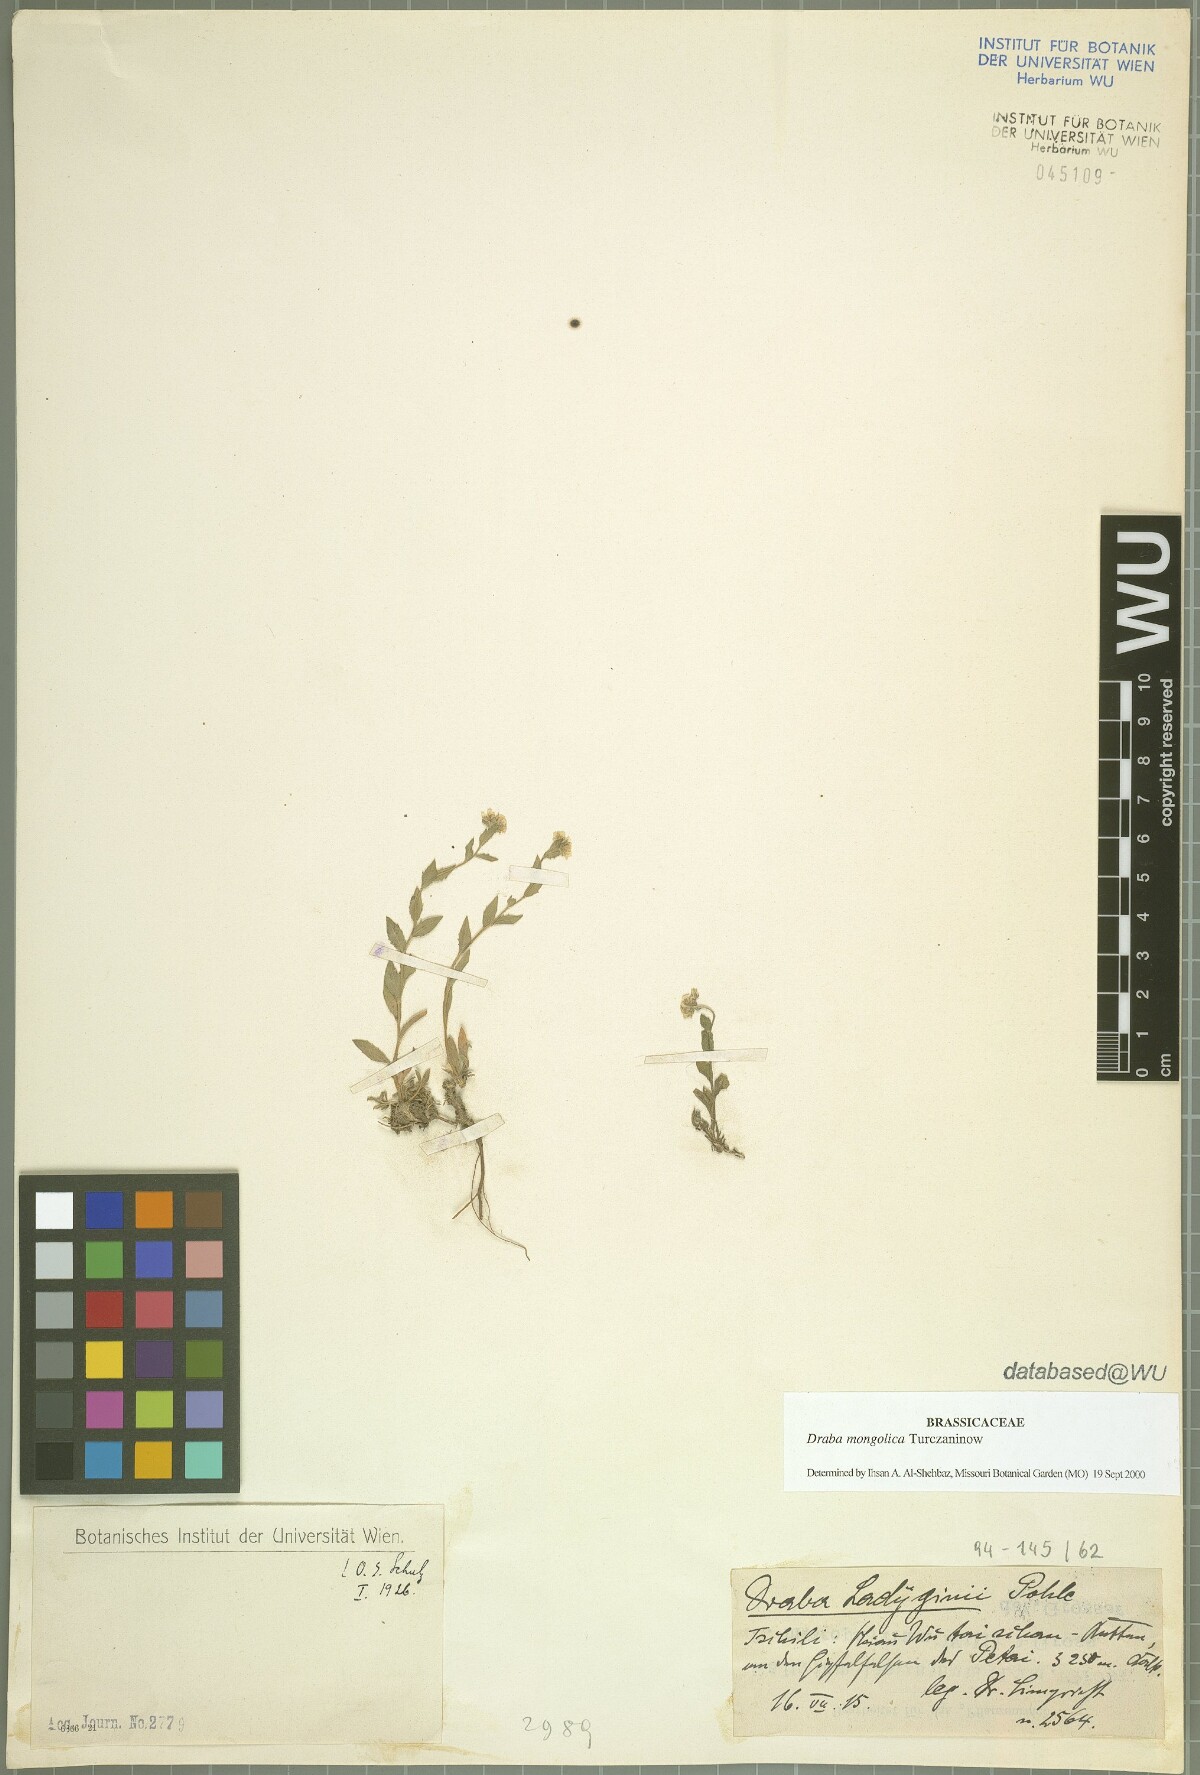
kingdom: Plantae
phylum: Tracheophyta
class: Magnoliopsida
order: Brassicales
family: Brassicaceae
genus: Draba
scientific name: Draba mongolica
